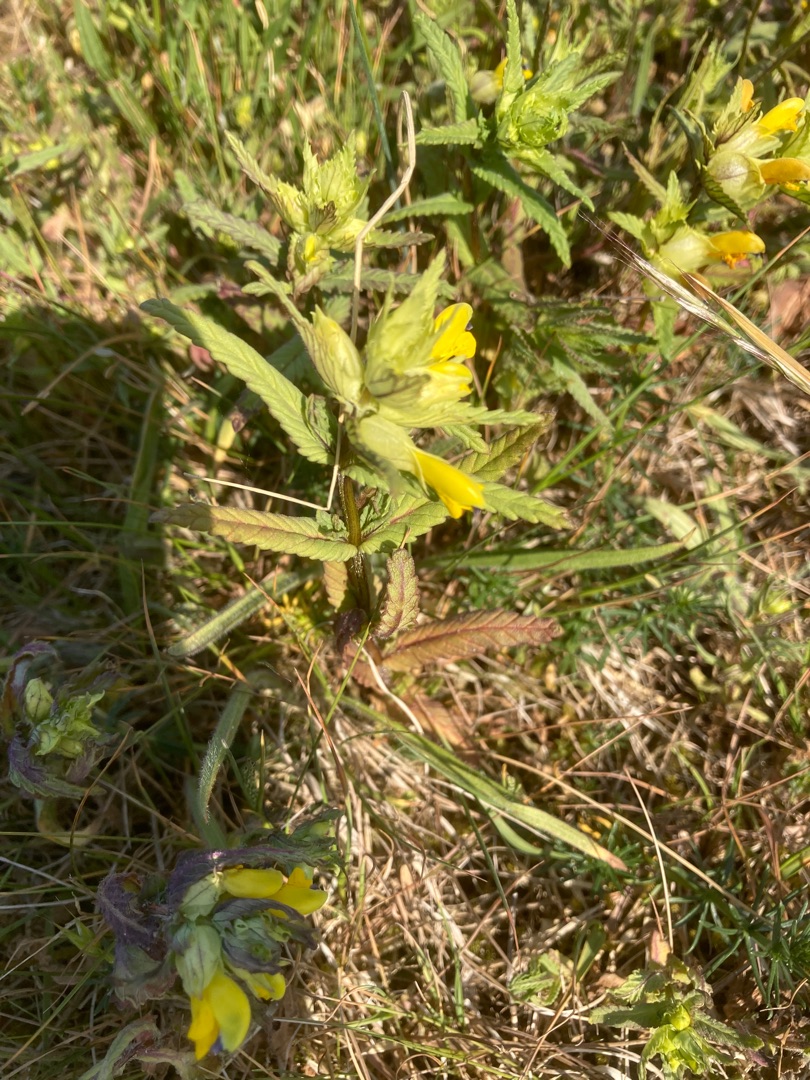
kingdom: Plantae
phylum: Tracheophyta
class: Magnoliopsida
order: Lamiales
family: Orobanchaceae
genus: Rhinanthus
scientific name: Rhinanthus minor
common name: Liden skjaller
